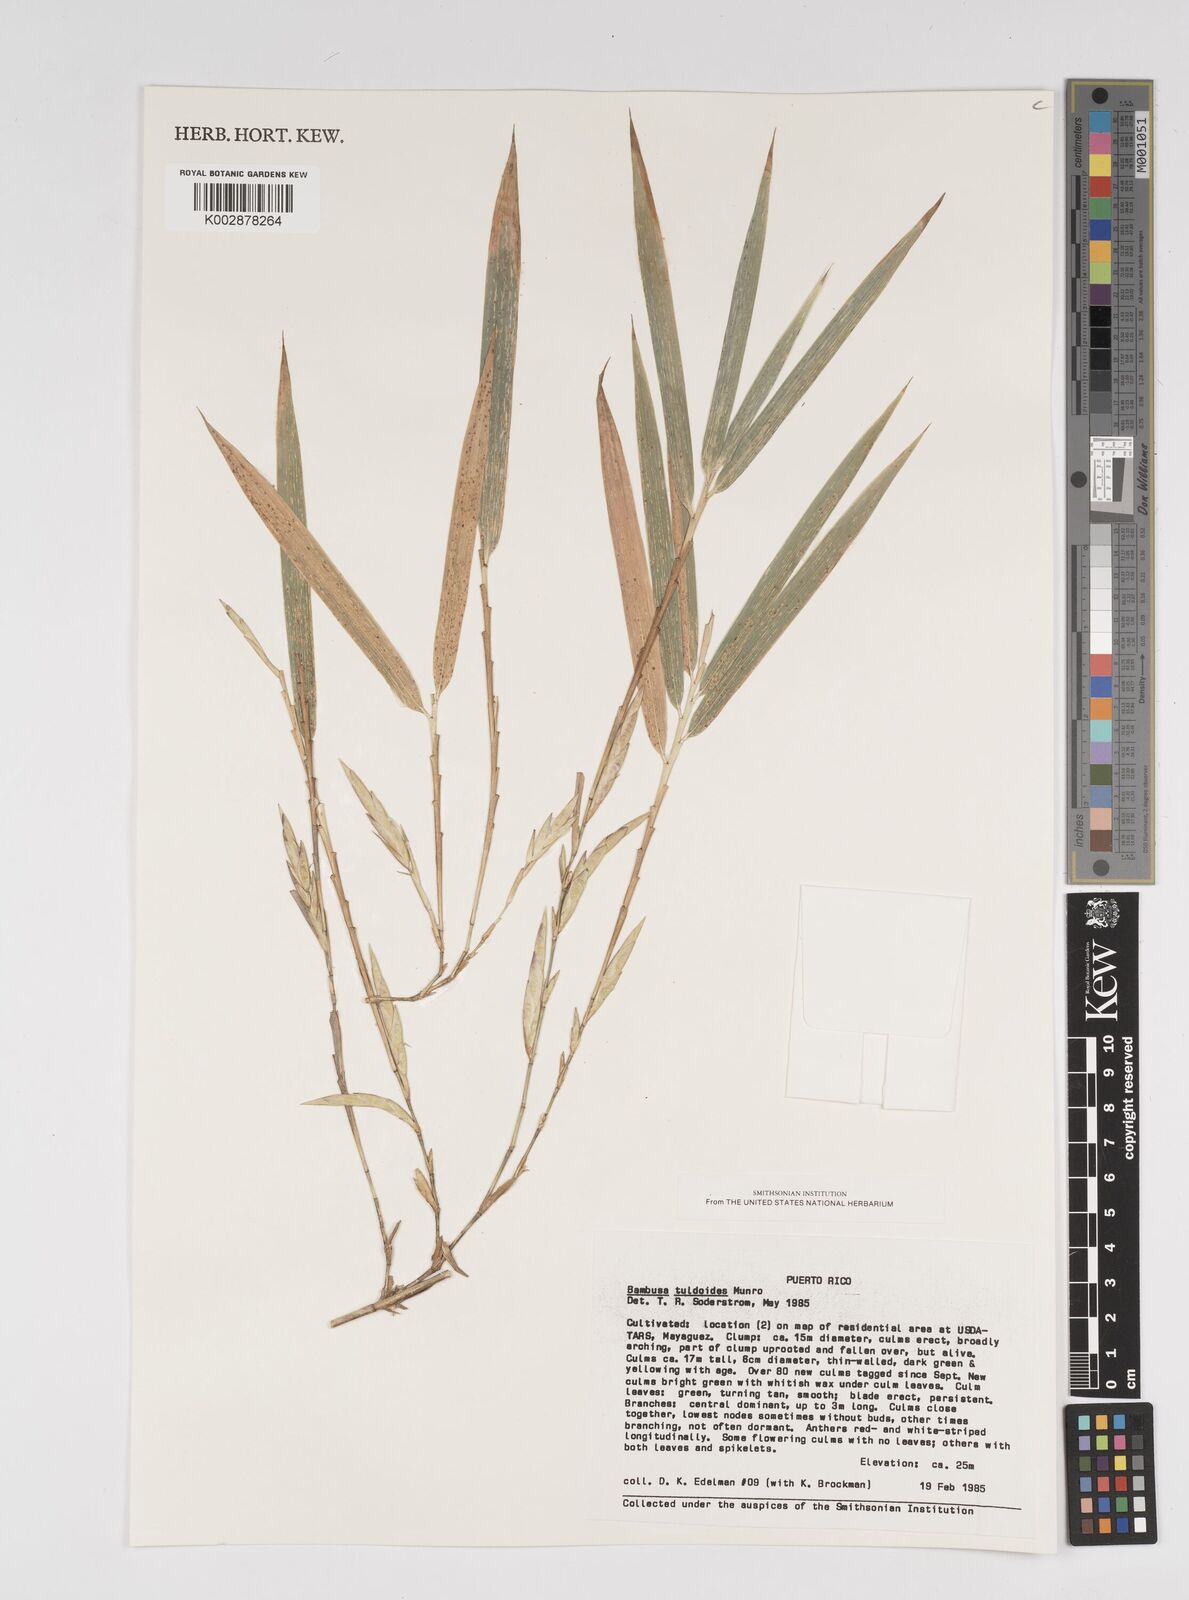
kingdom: Plantae
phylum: Tracheophyta
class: Liliopsida
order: Poales
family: Poaceae
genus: Bambusa
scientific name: Bambusa tuldoides
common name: Verdant bamboo
